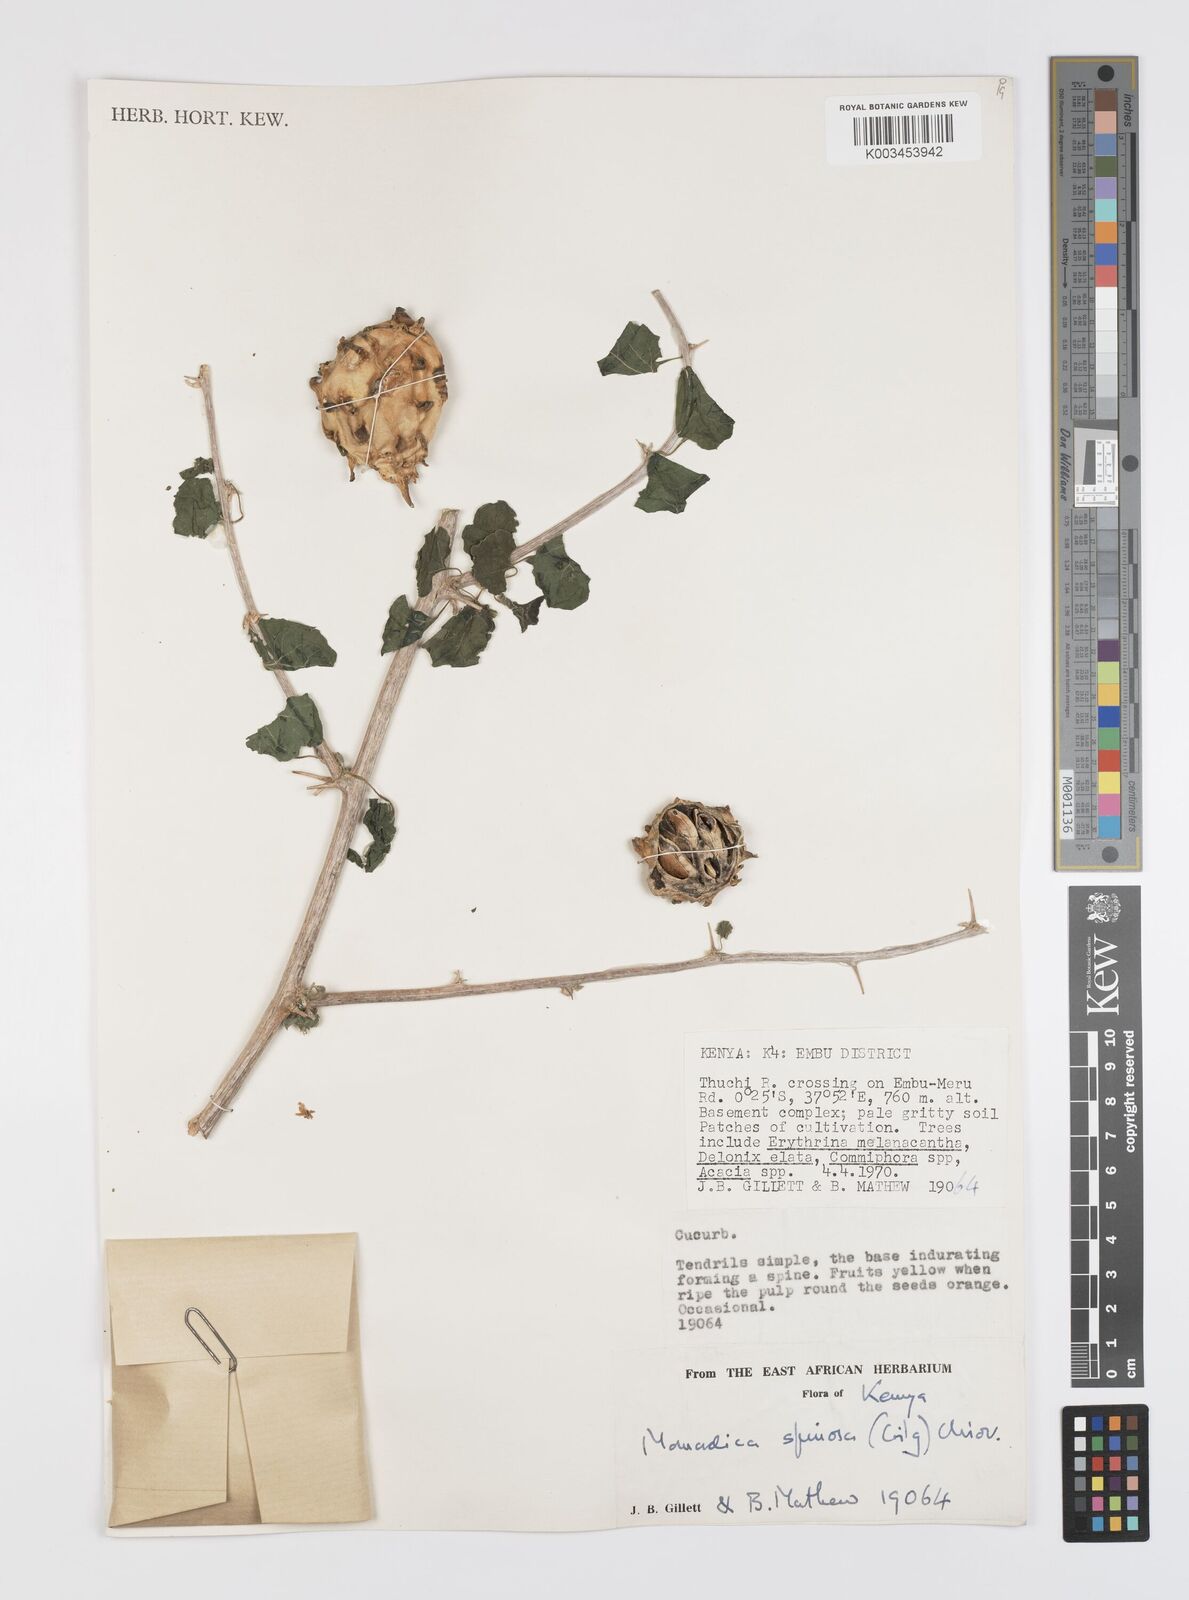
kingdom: Plantae
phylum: Tracheophyta
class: Magnoliopsida
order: Cucurbitales
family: Cucurbitaceae
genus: Momordica
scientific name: Momordica spinosa
